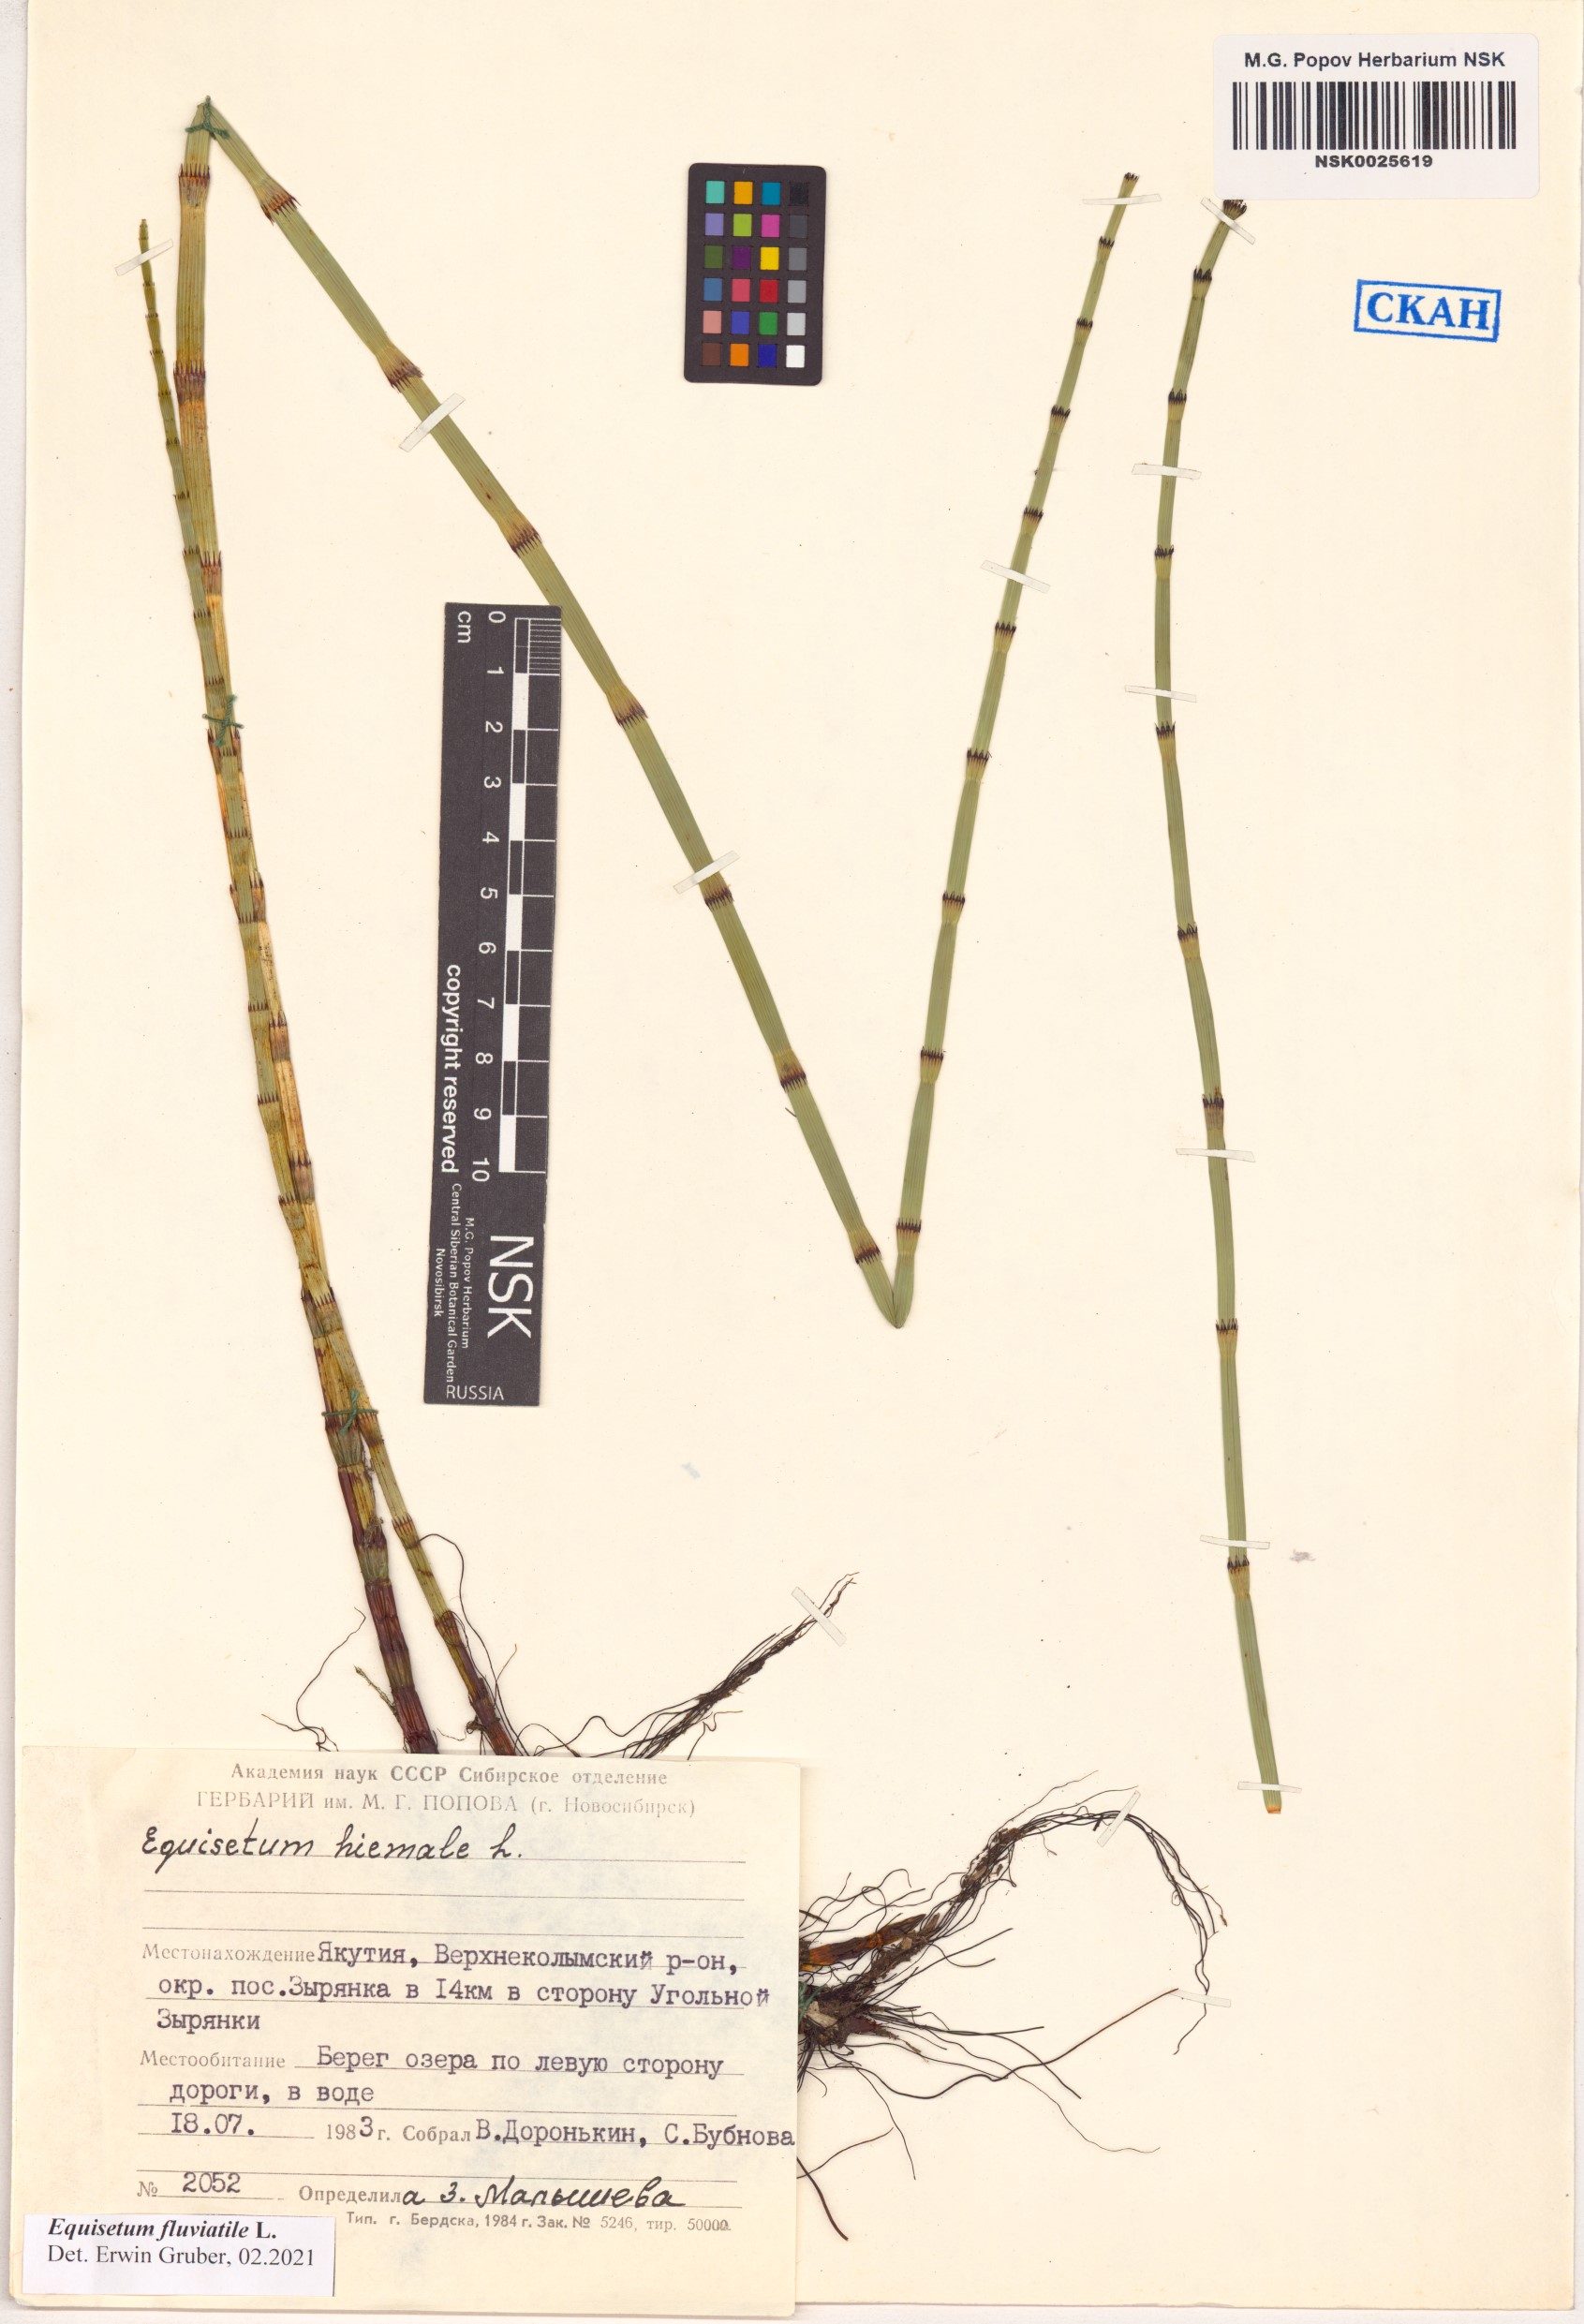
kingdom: Plantae
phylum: Tracheophyta
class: Polypodiopsida
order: Equisetales
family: Equisetaceae
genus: Equisetum
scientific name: Equisetum fluviatile
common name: Water horsetail
